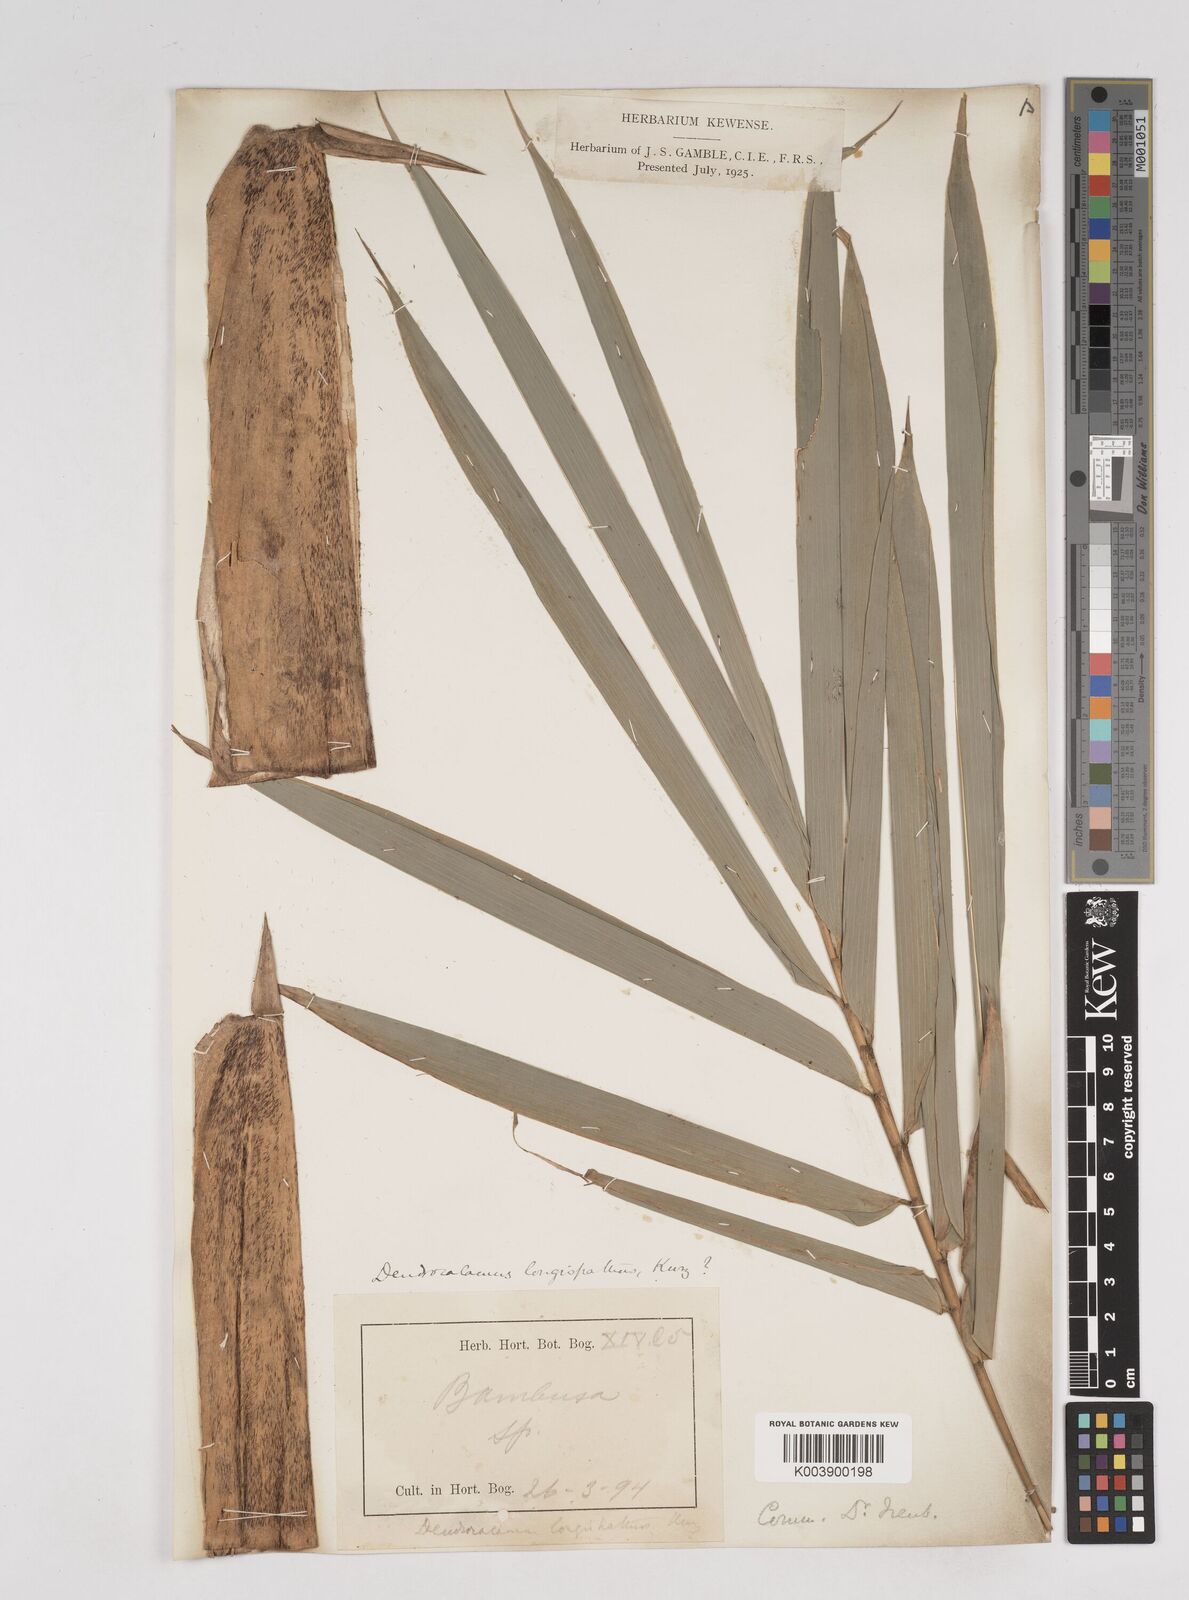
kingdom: Plantae
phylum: Tracheophyta
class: Liliopsida
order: Poales
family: Poaceae
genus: Gigantochloa
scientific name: Gigantochloa atter
